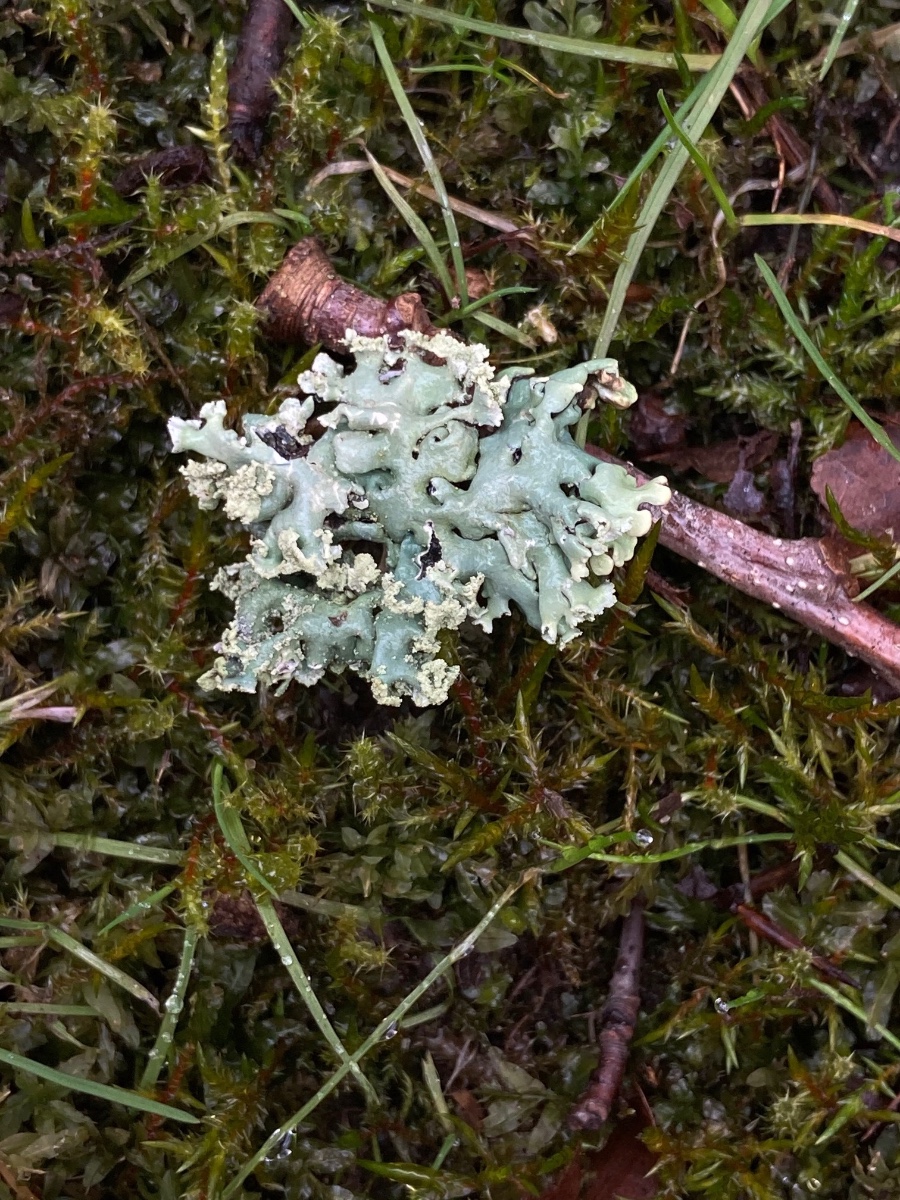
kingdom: Fungi
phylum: Ascomycota
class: Lecanoromycetes
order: Lecanorales
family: Parmeliaceae
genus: Hypogymnia
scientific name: Hypogymnia physodes
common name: almindelig kvistlav
